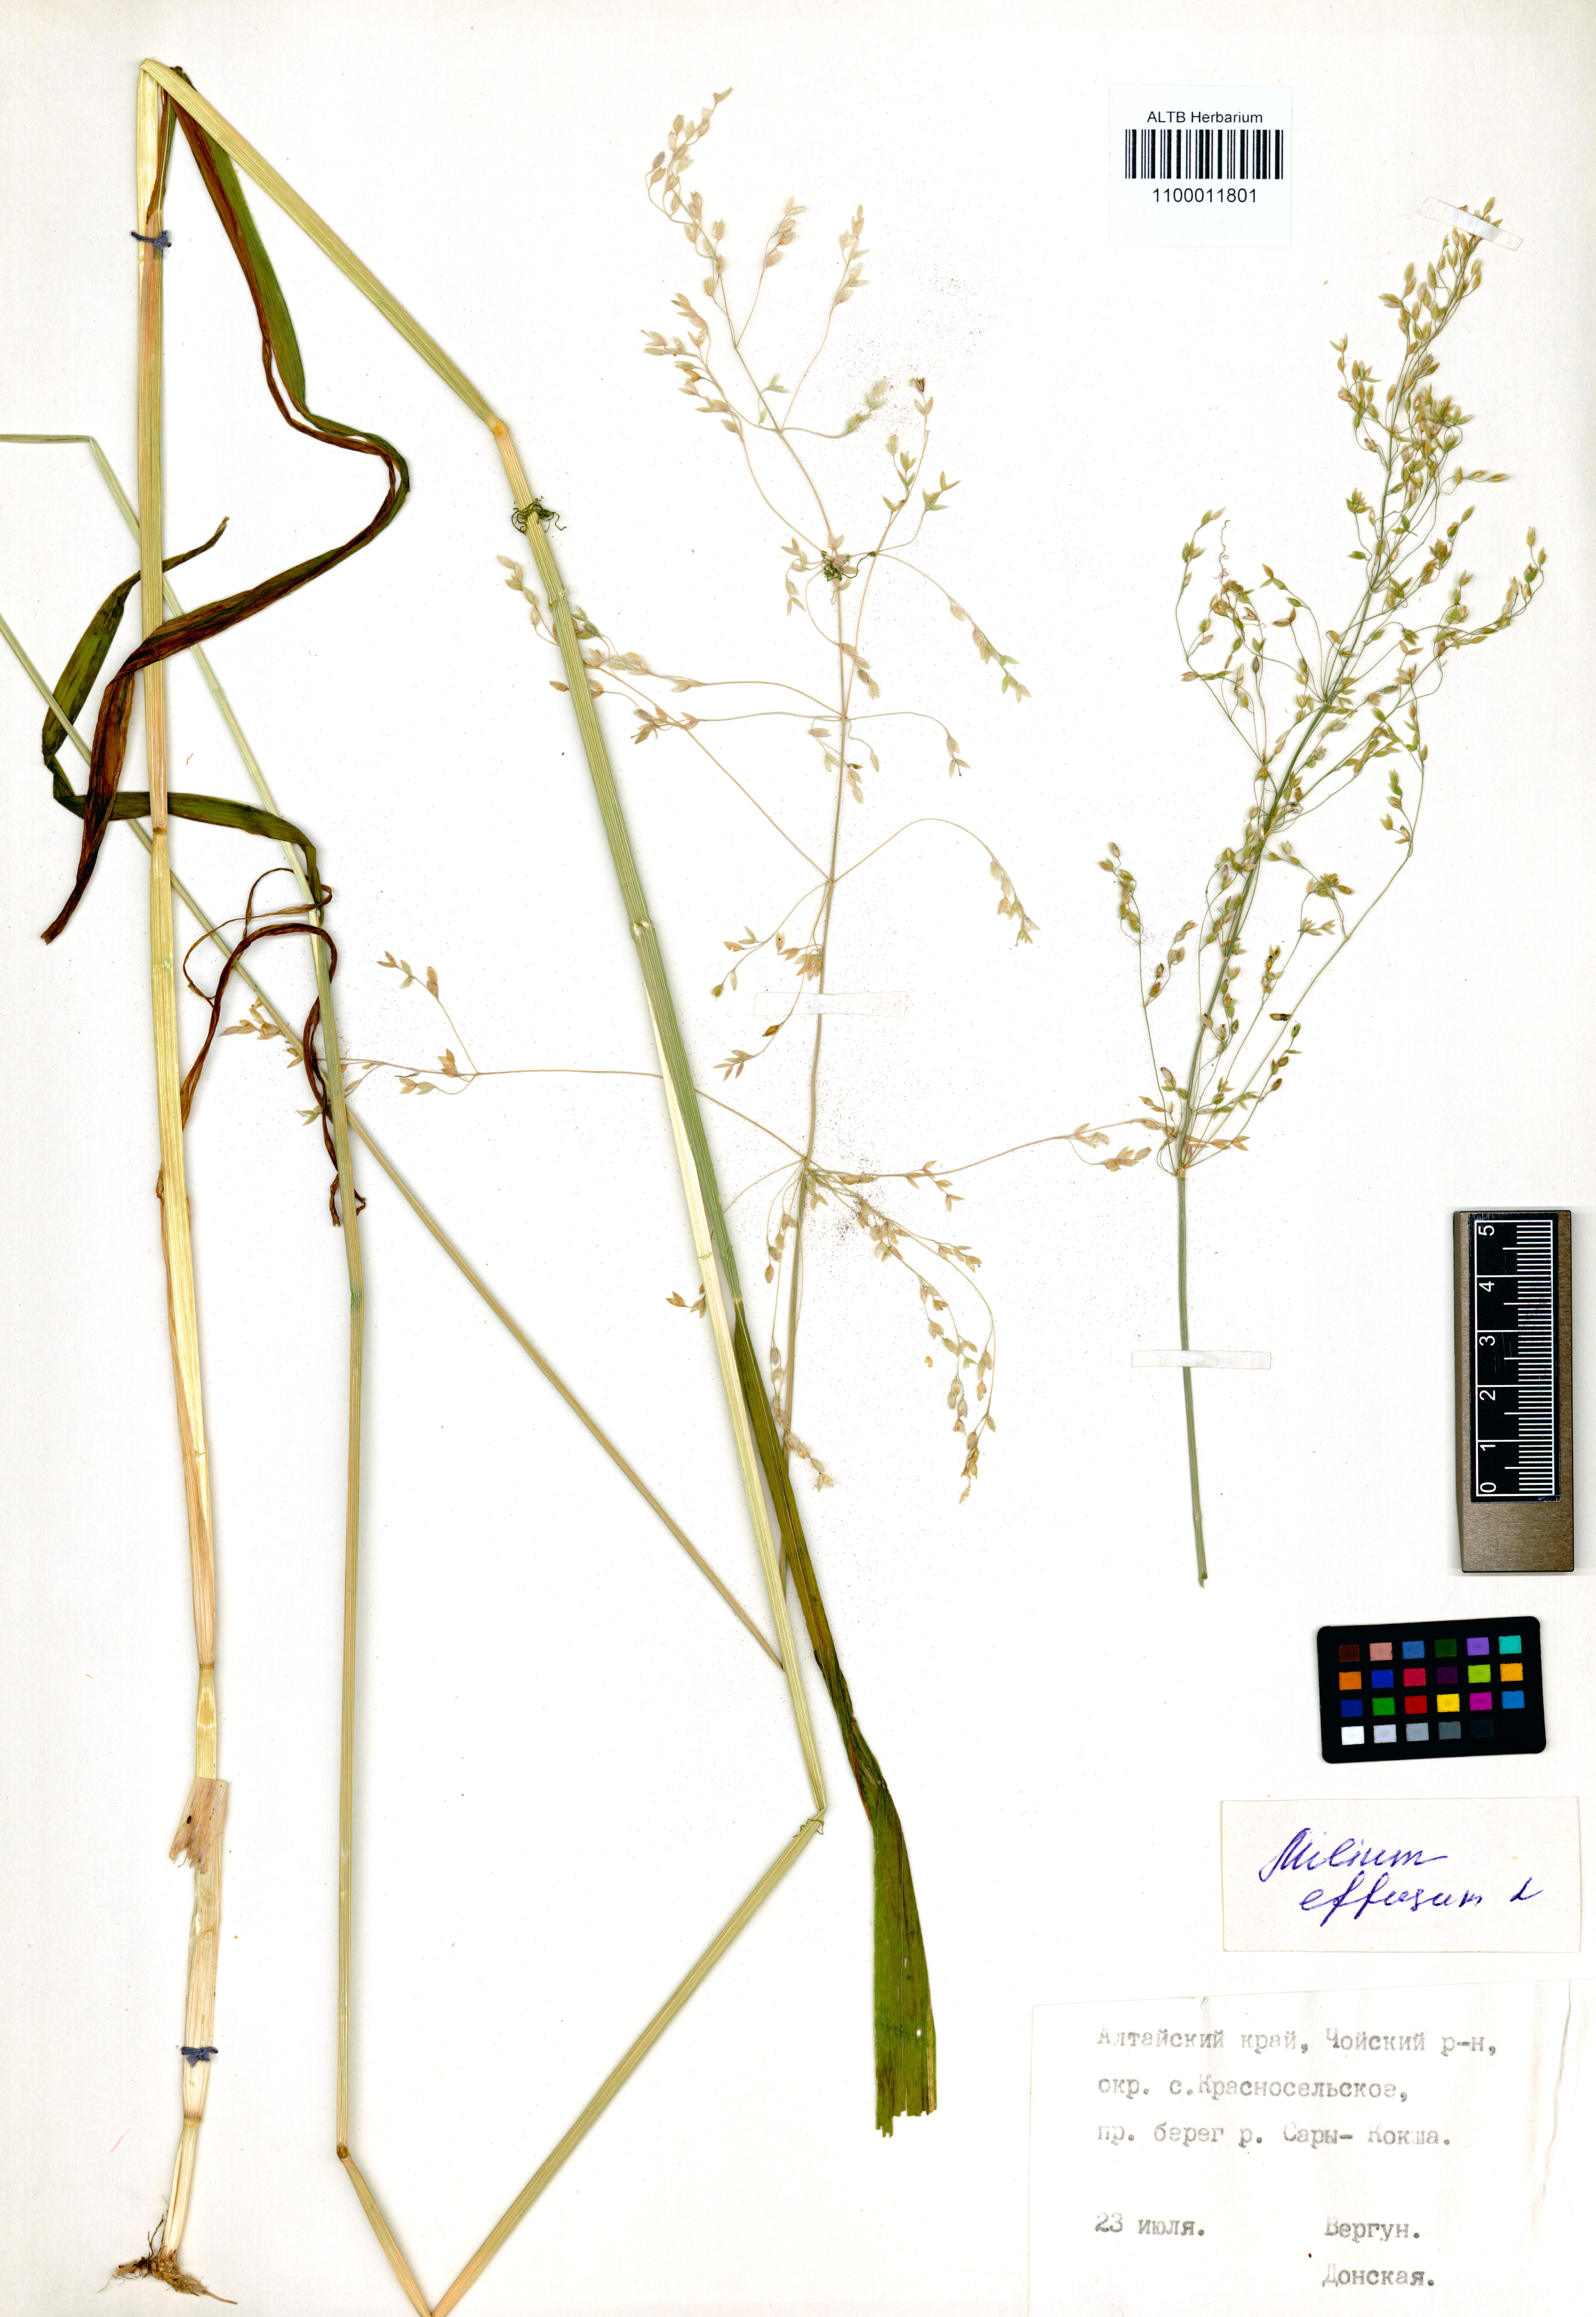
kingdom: Plantae
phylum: Tracheophyta
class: Liliopsida
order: Poales
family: Poaceae
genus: Milium
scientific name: Milium effusum
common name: Wood millet
